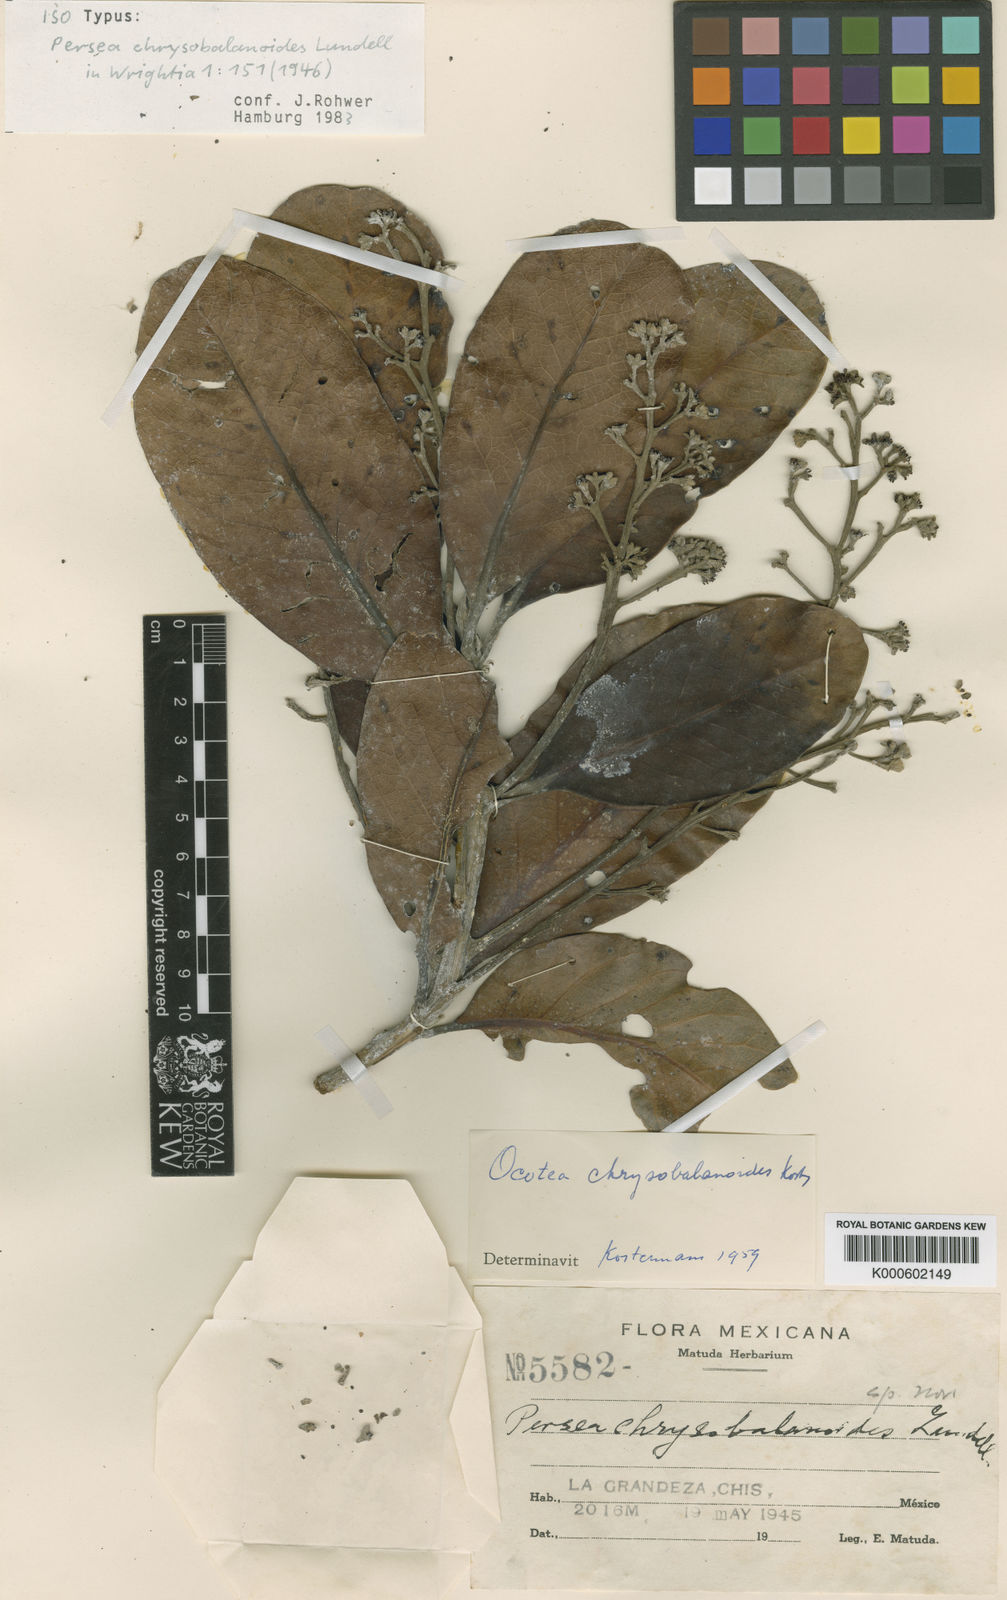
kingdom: Plantae
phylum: Tracheophyta
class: Magnoliopsida
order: Laurales
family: Lauraceae
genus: Ocotea
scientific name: Ocotea
